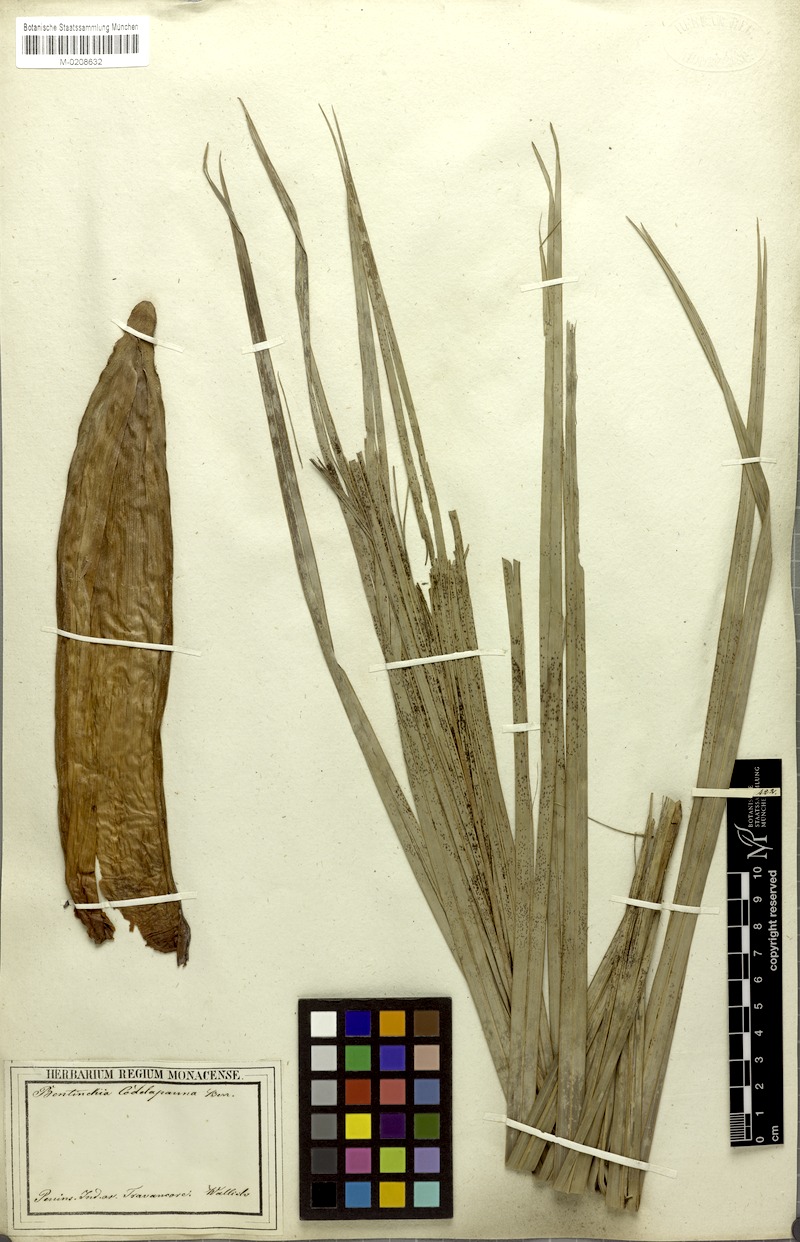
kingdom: Plantae
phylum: Tracheophyta
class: Liliopsida
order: Arecales
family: Arecaceae
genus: Bentinckia
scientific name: Bentinckia condapanna
